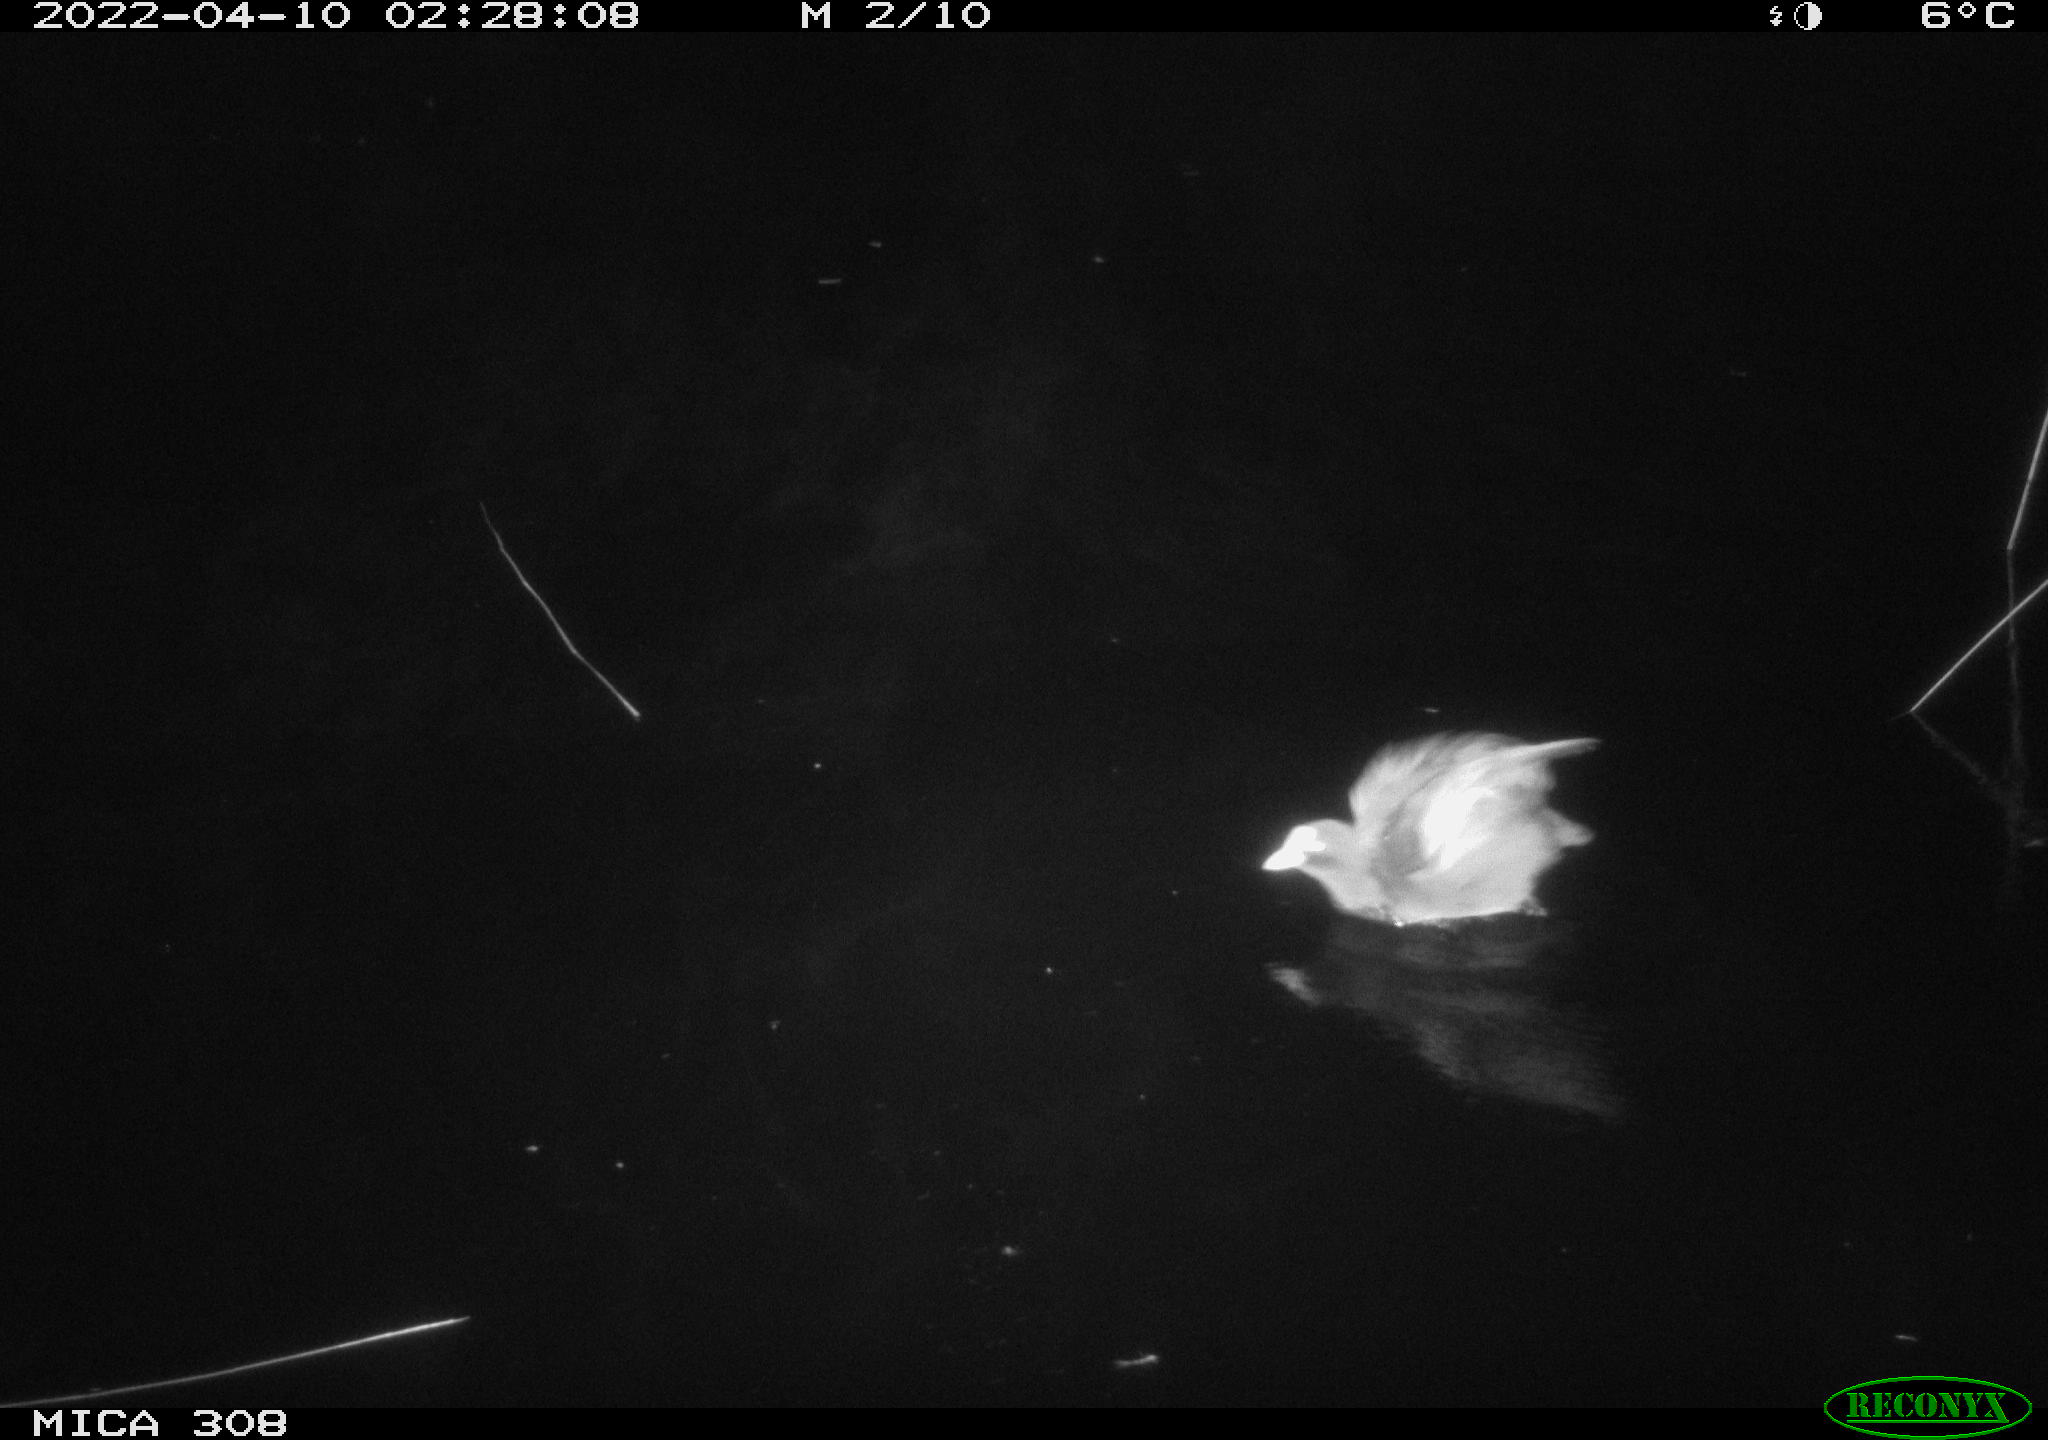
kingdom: Animalia
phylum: Chordata
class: Aves
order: Gruiformes
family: Rallidae
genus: Fulica
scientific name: Fulica atra
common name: Eurasian coot
